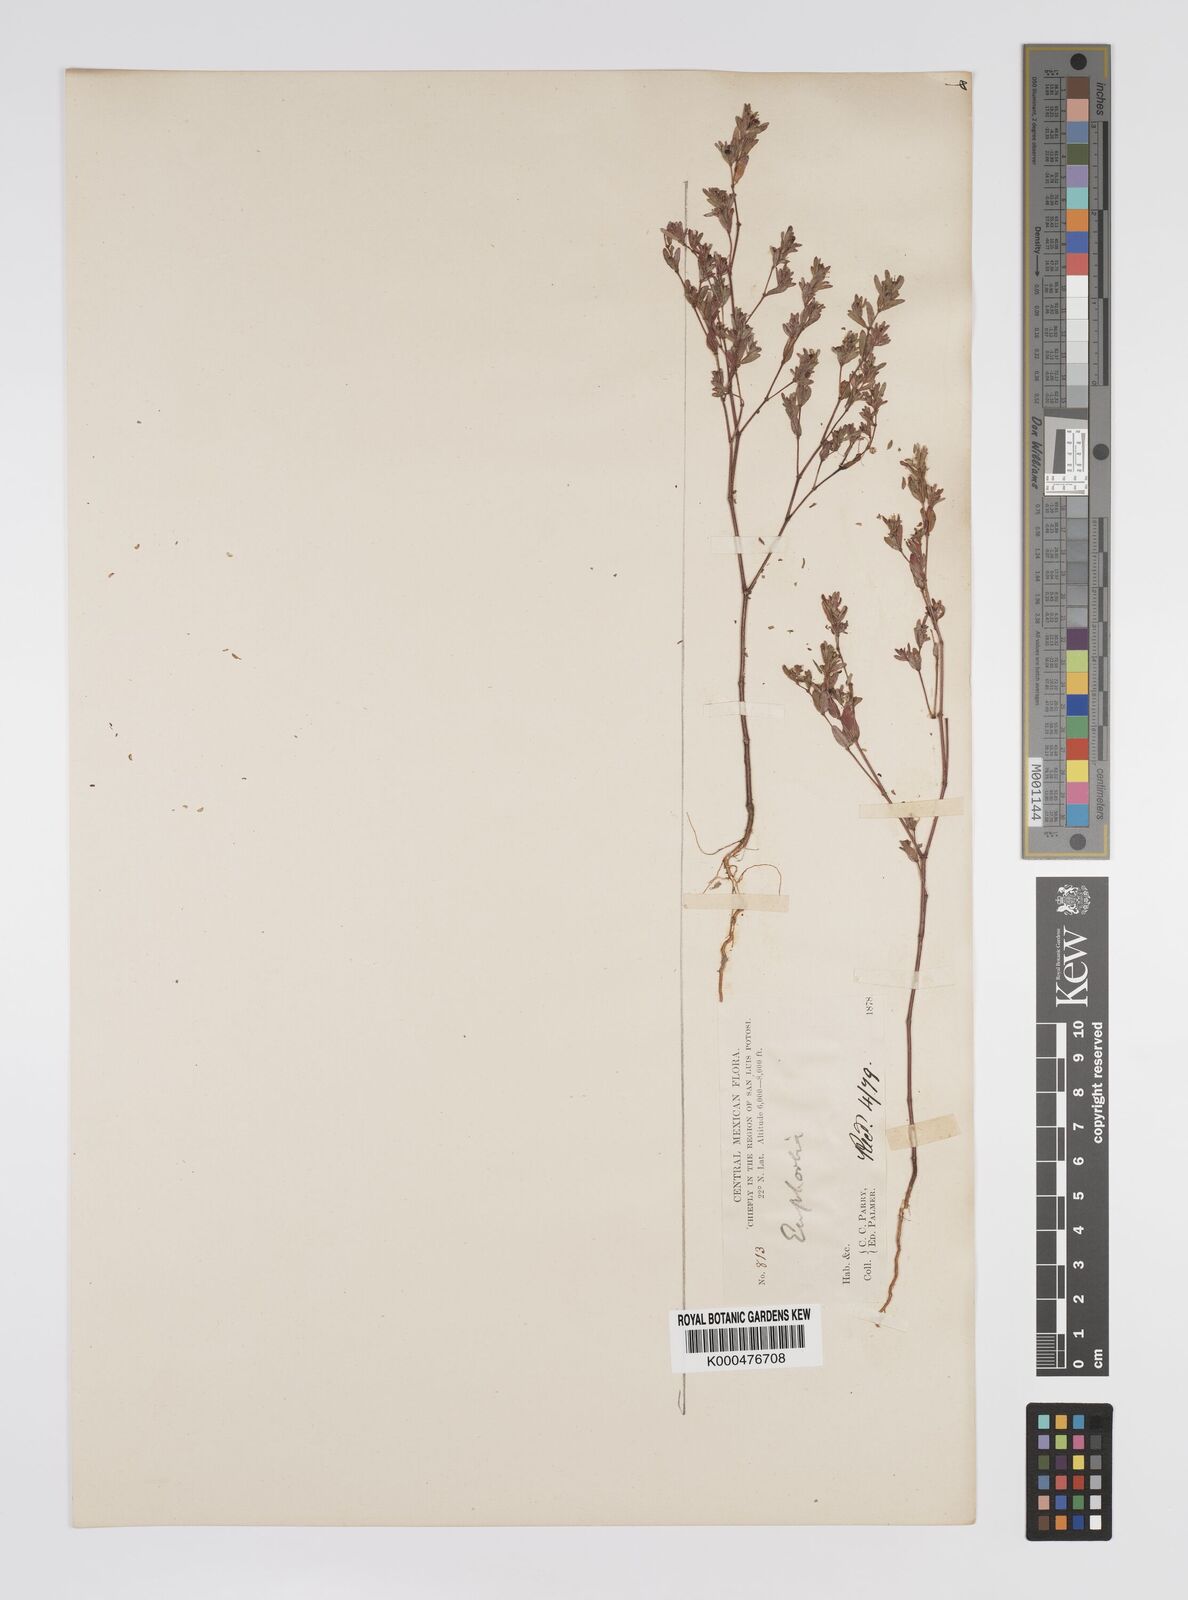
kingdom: Plantae
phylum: Tracheophyta
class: Magnoliopsida
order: Malpighiales
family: Euphorbiaceae
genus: Euphorbia
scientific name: Euphorbia
